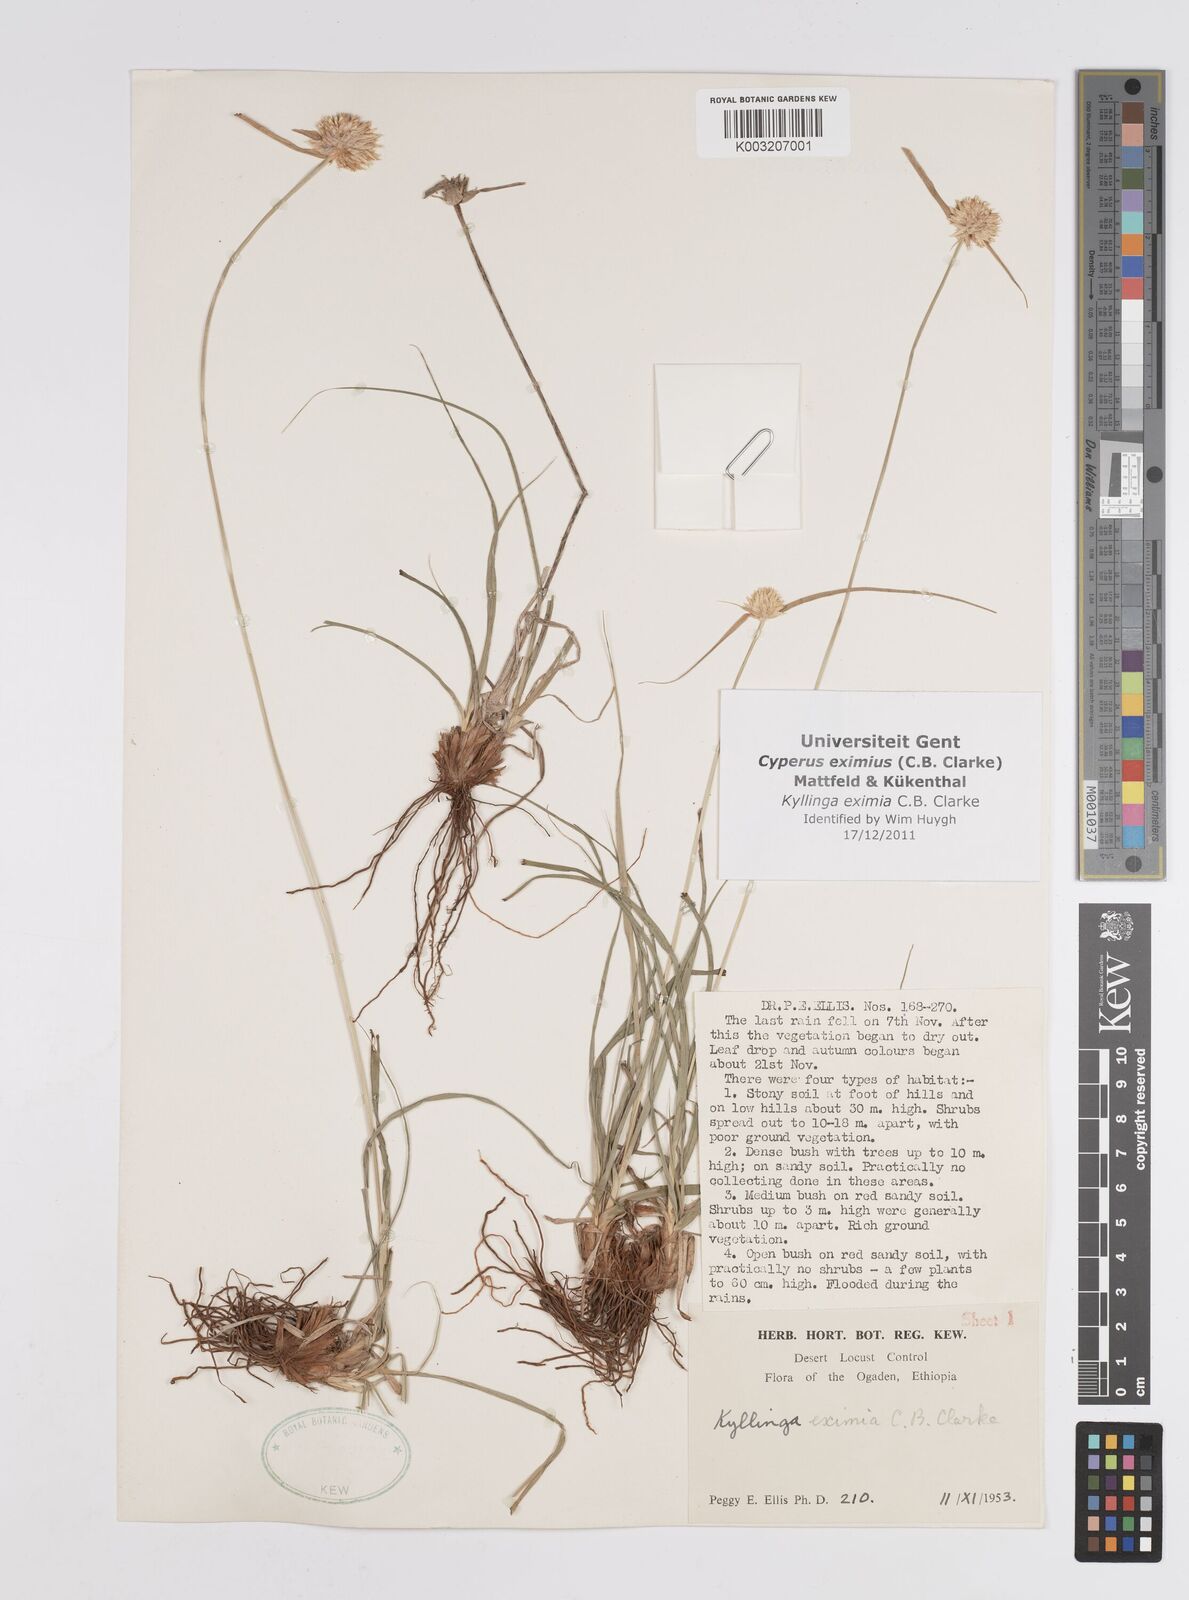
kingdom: Plantae
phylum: Tracheophyta
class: Liliopsida
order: Poales
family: Cyperaceae
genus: Cyperus
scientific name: Cyperus eximius
